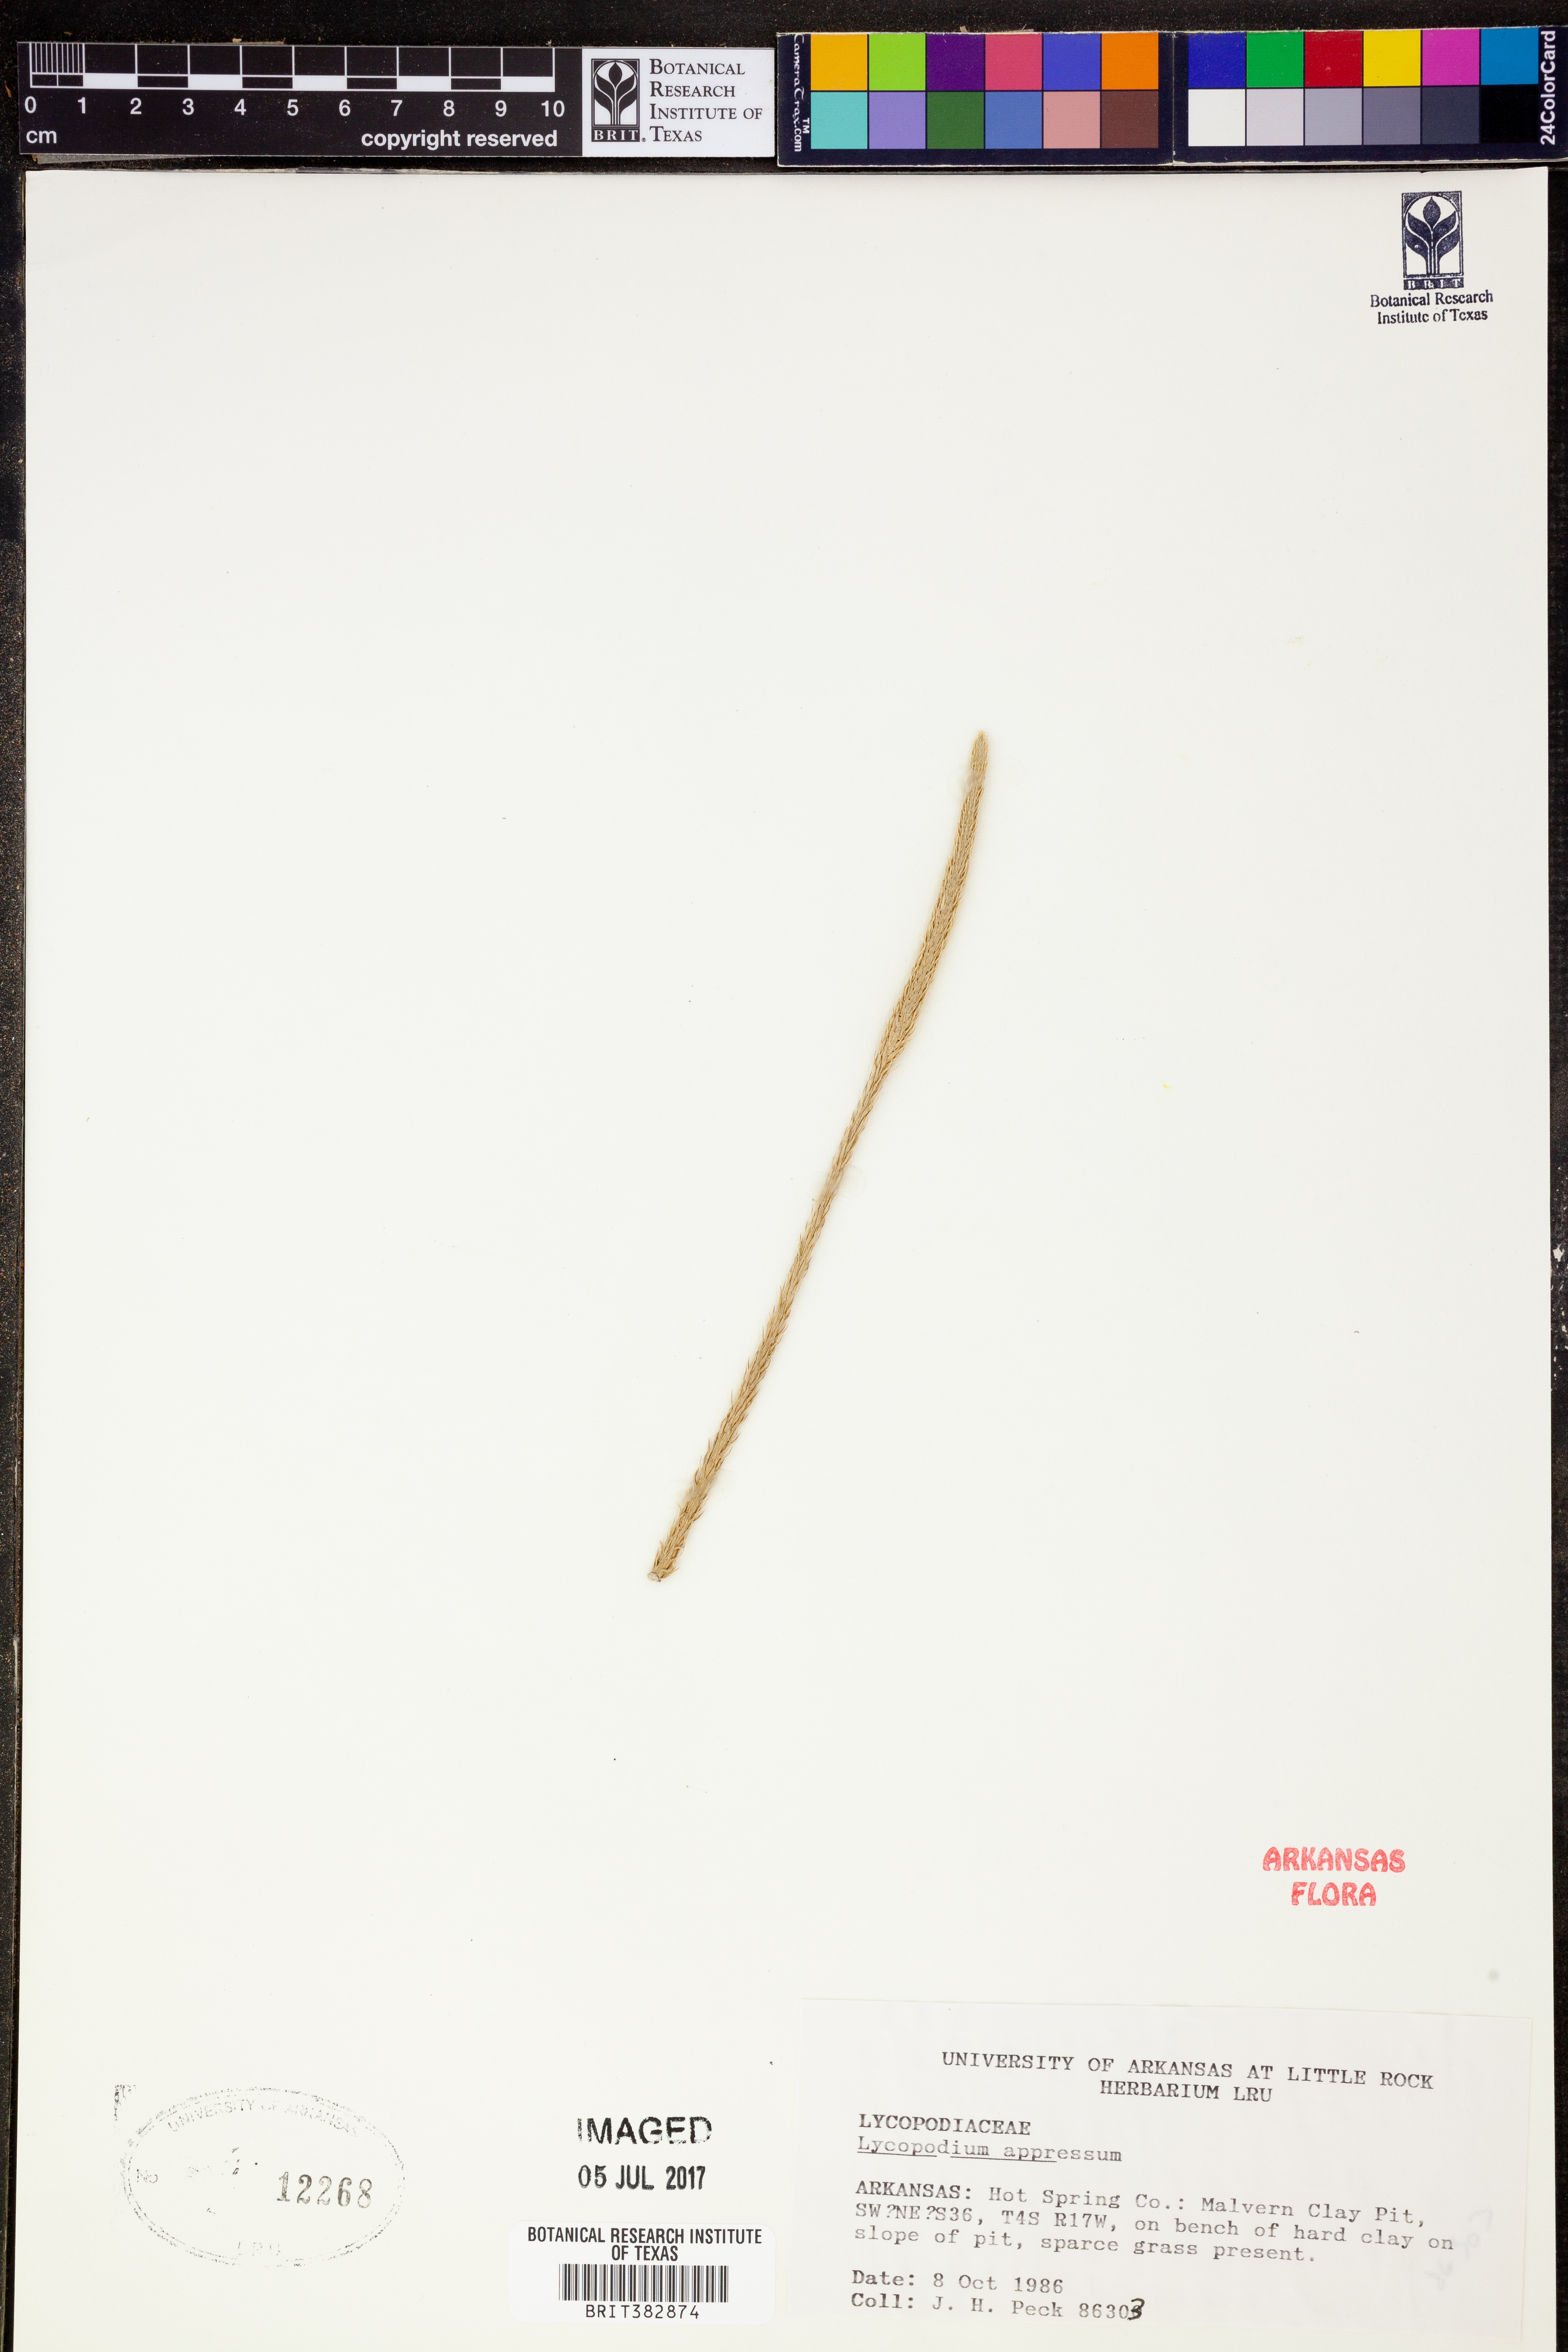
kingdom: Plantae
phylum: Tracheophyta
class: Lycopodiopsida
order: Lycopodiales
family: Lycopodiaceae
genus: Lycopodiella
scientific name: Lycopodiella appressa
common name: Appressed bog clubmoss
